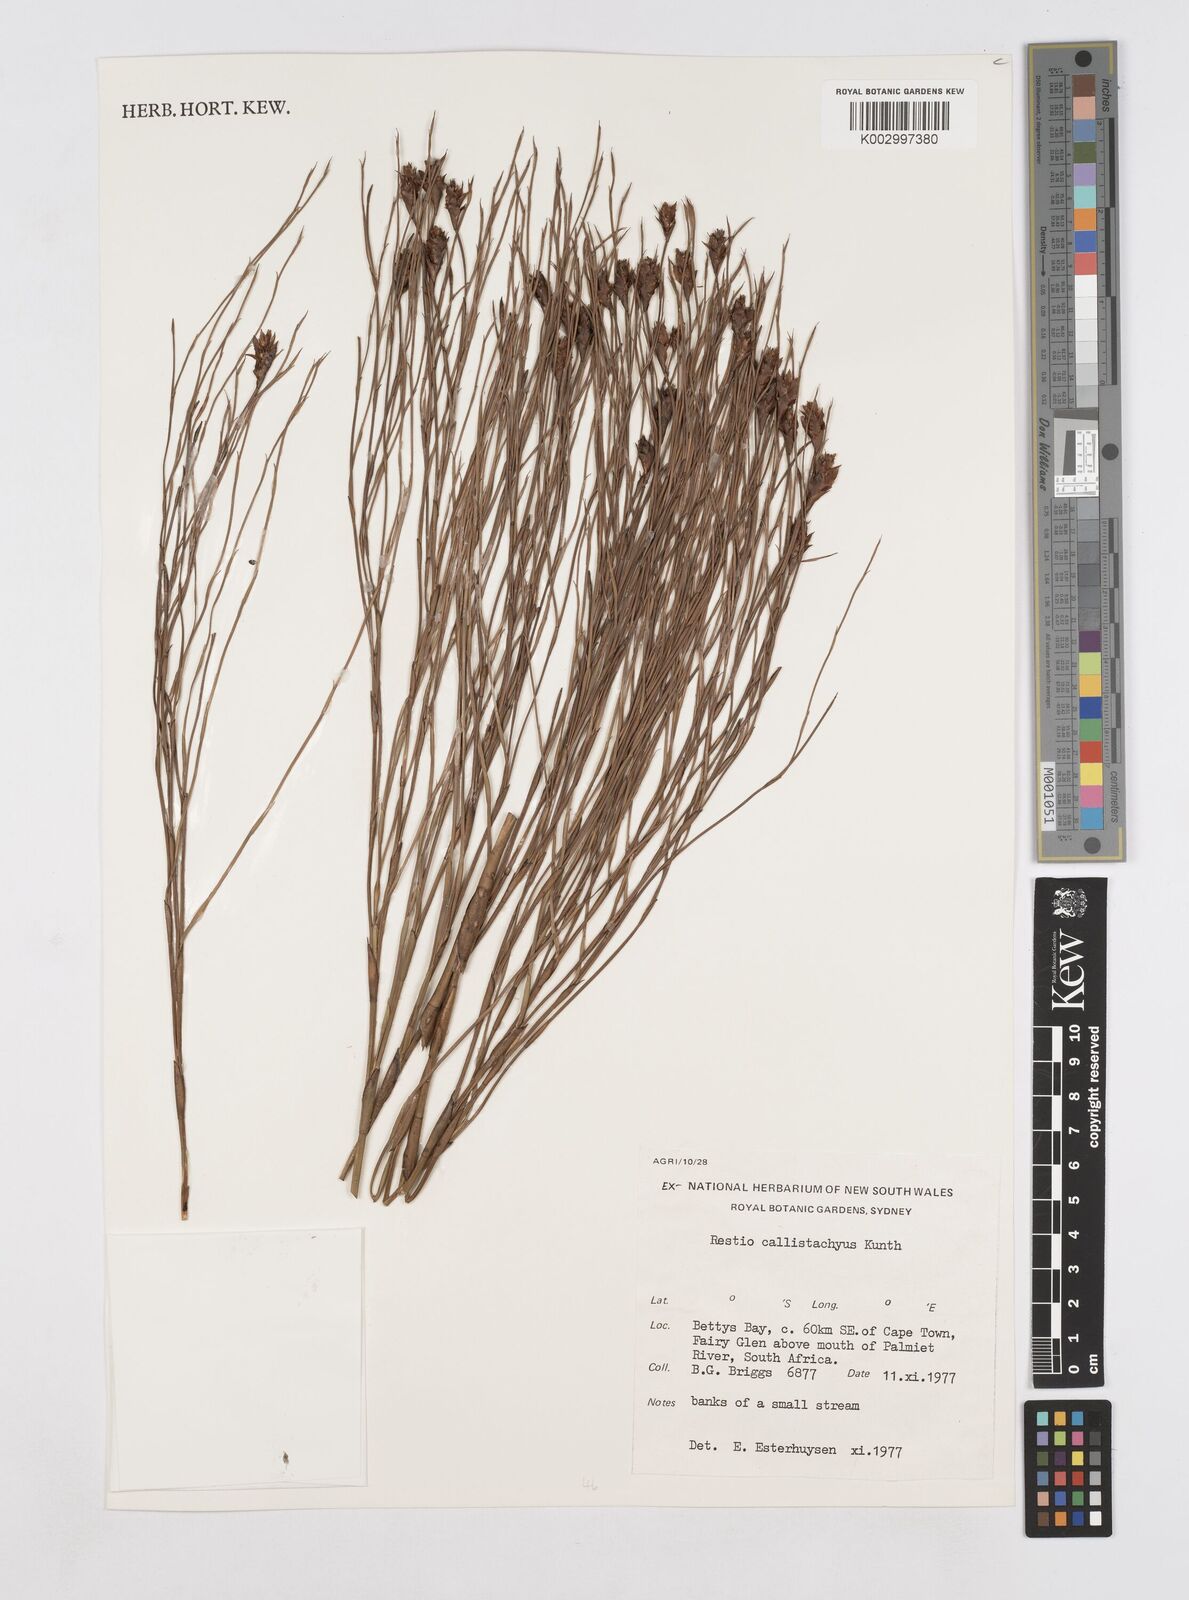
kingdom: Plantae
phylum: Tracheophyta
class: Liliopsida
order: Poales
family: Restionaceae
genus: Platycaulos
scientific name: Platycaulos callistachyus
